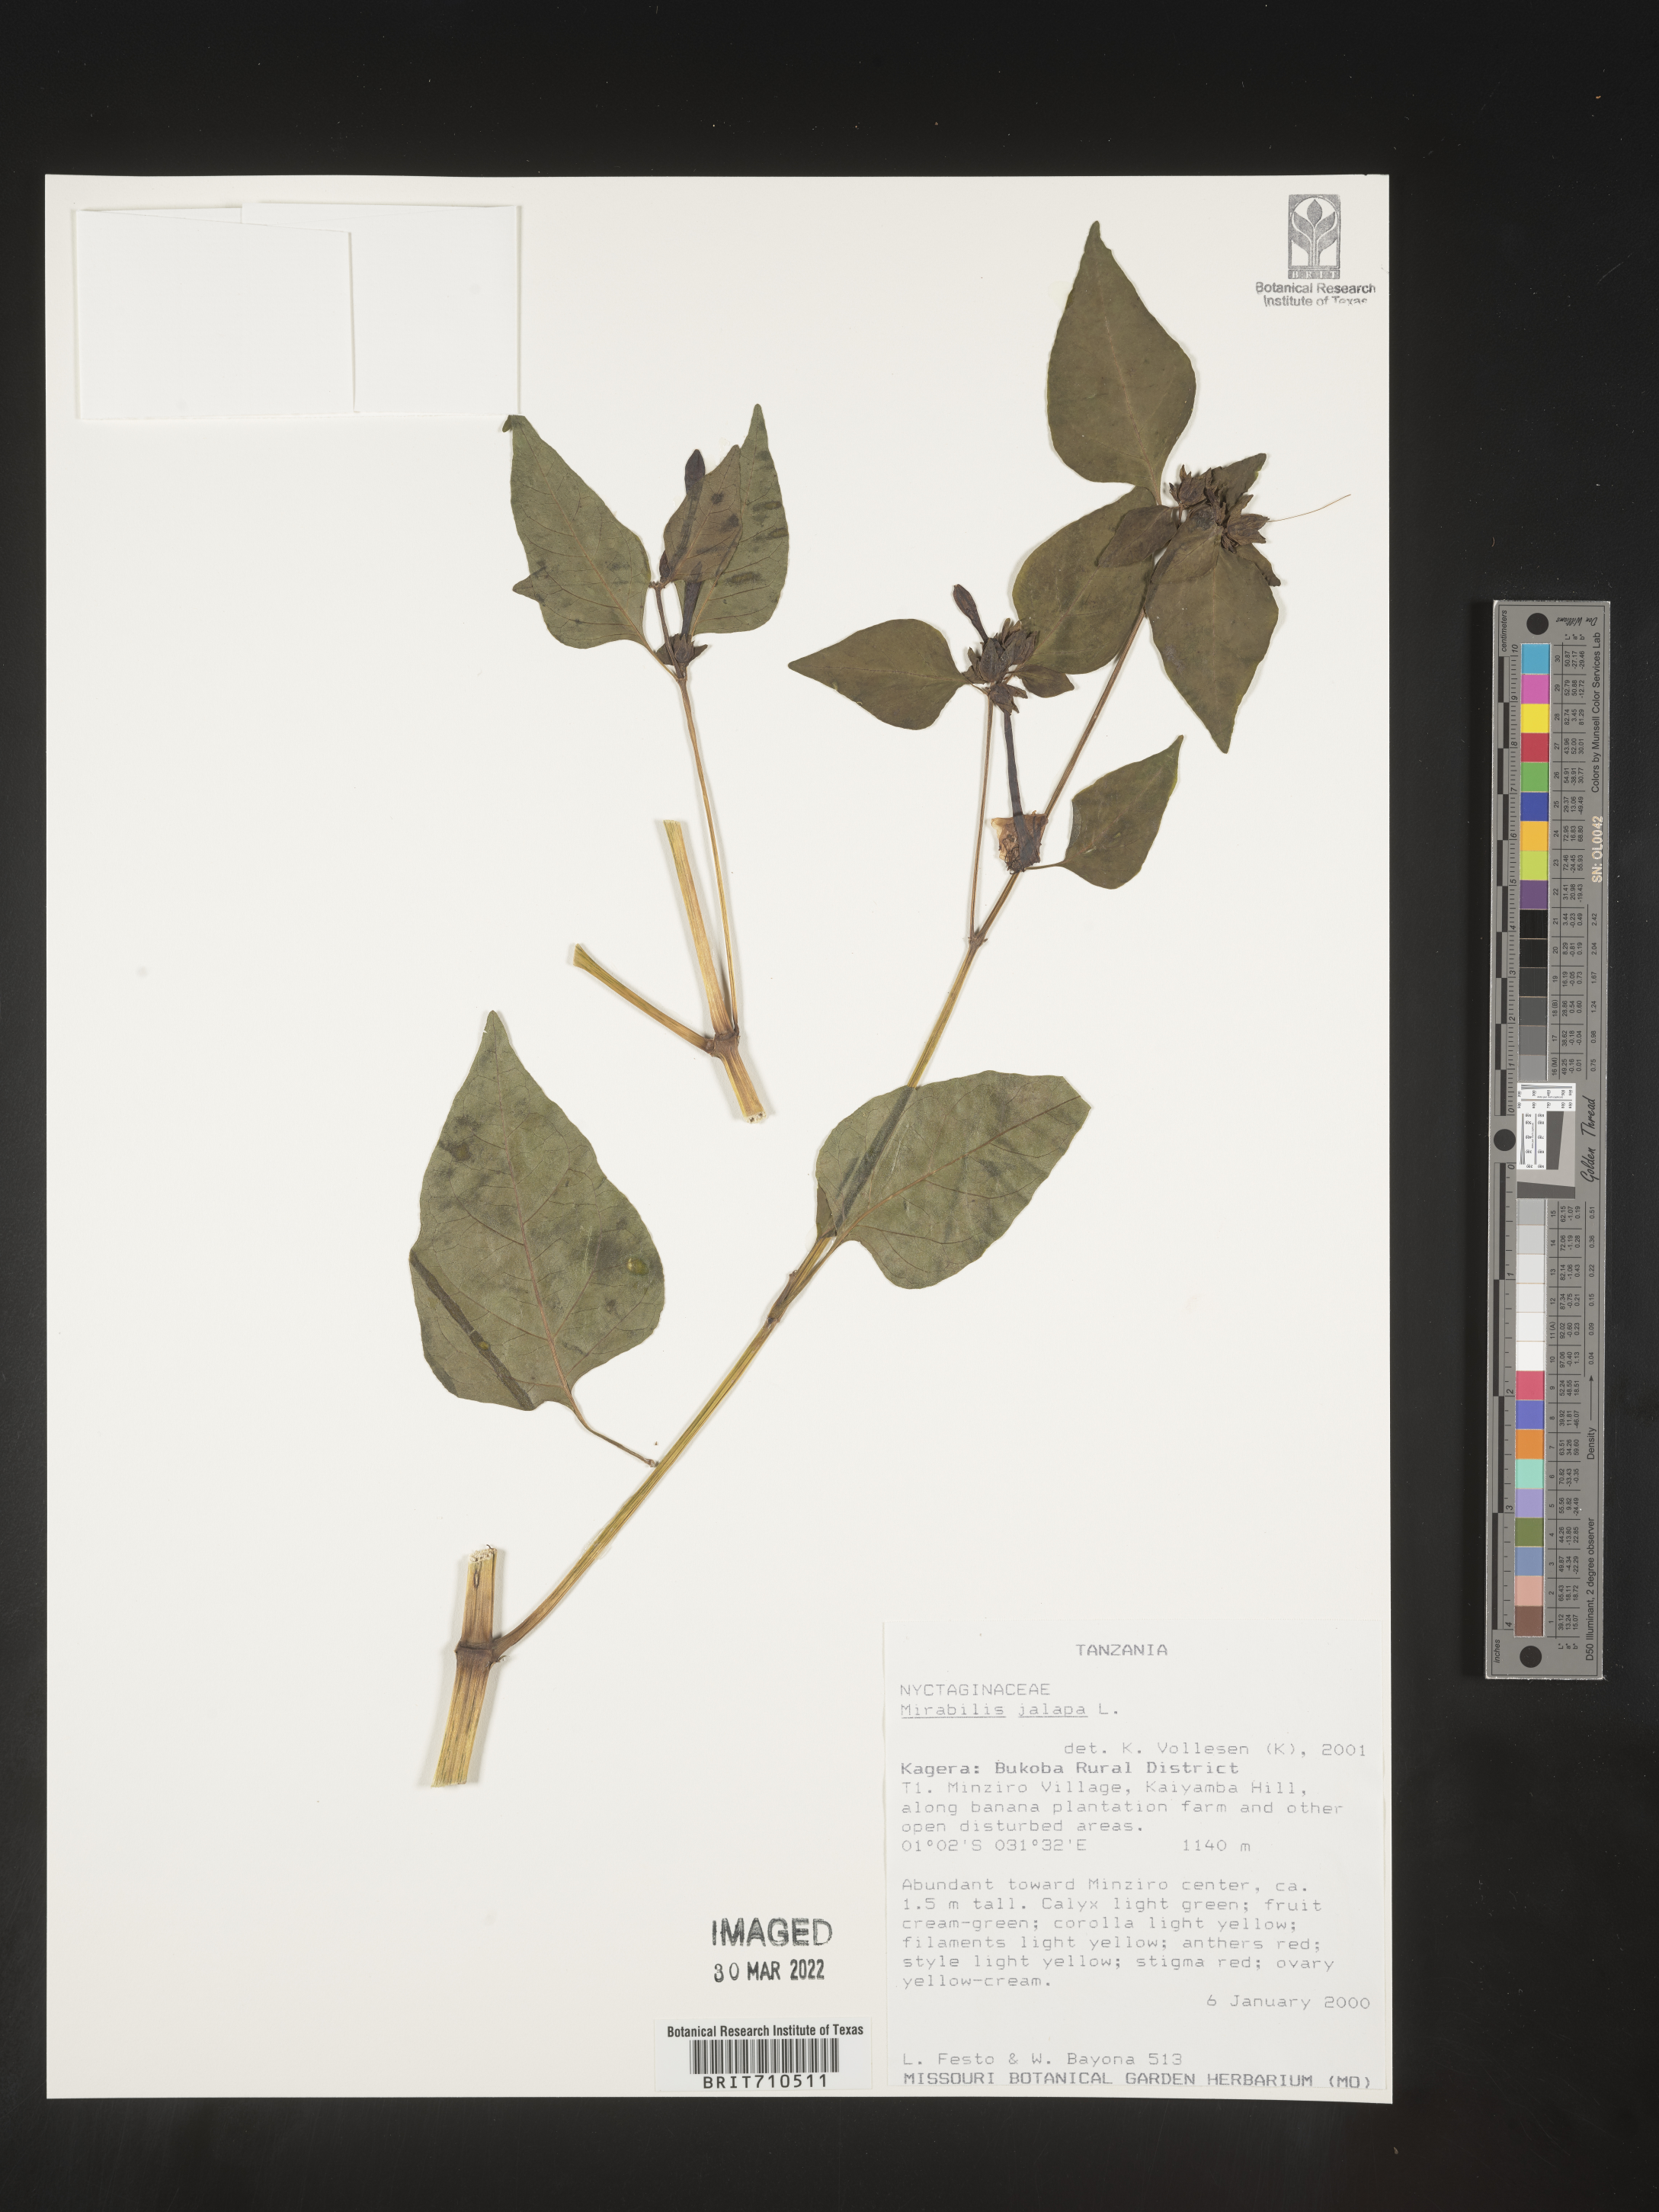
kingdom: Plantae
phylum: Tracheophyta
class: Magnoliopsida
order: Caryophyllales
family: Nyctaginaceae
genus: Mirabilis
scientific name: Mirabilis
